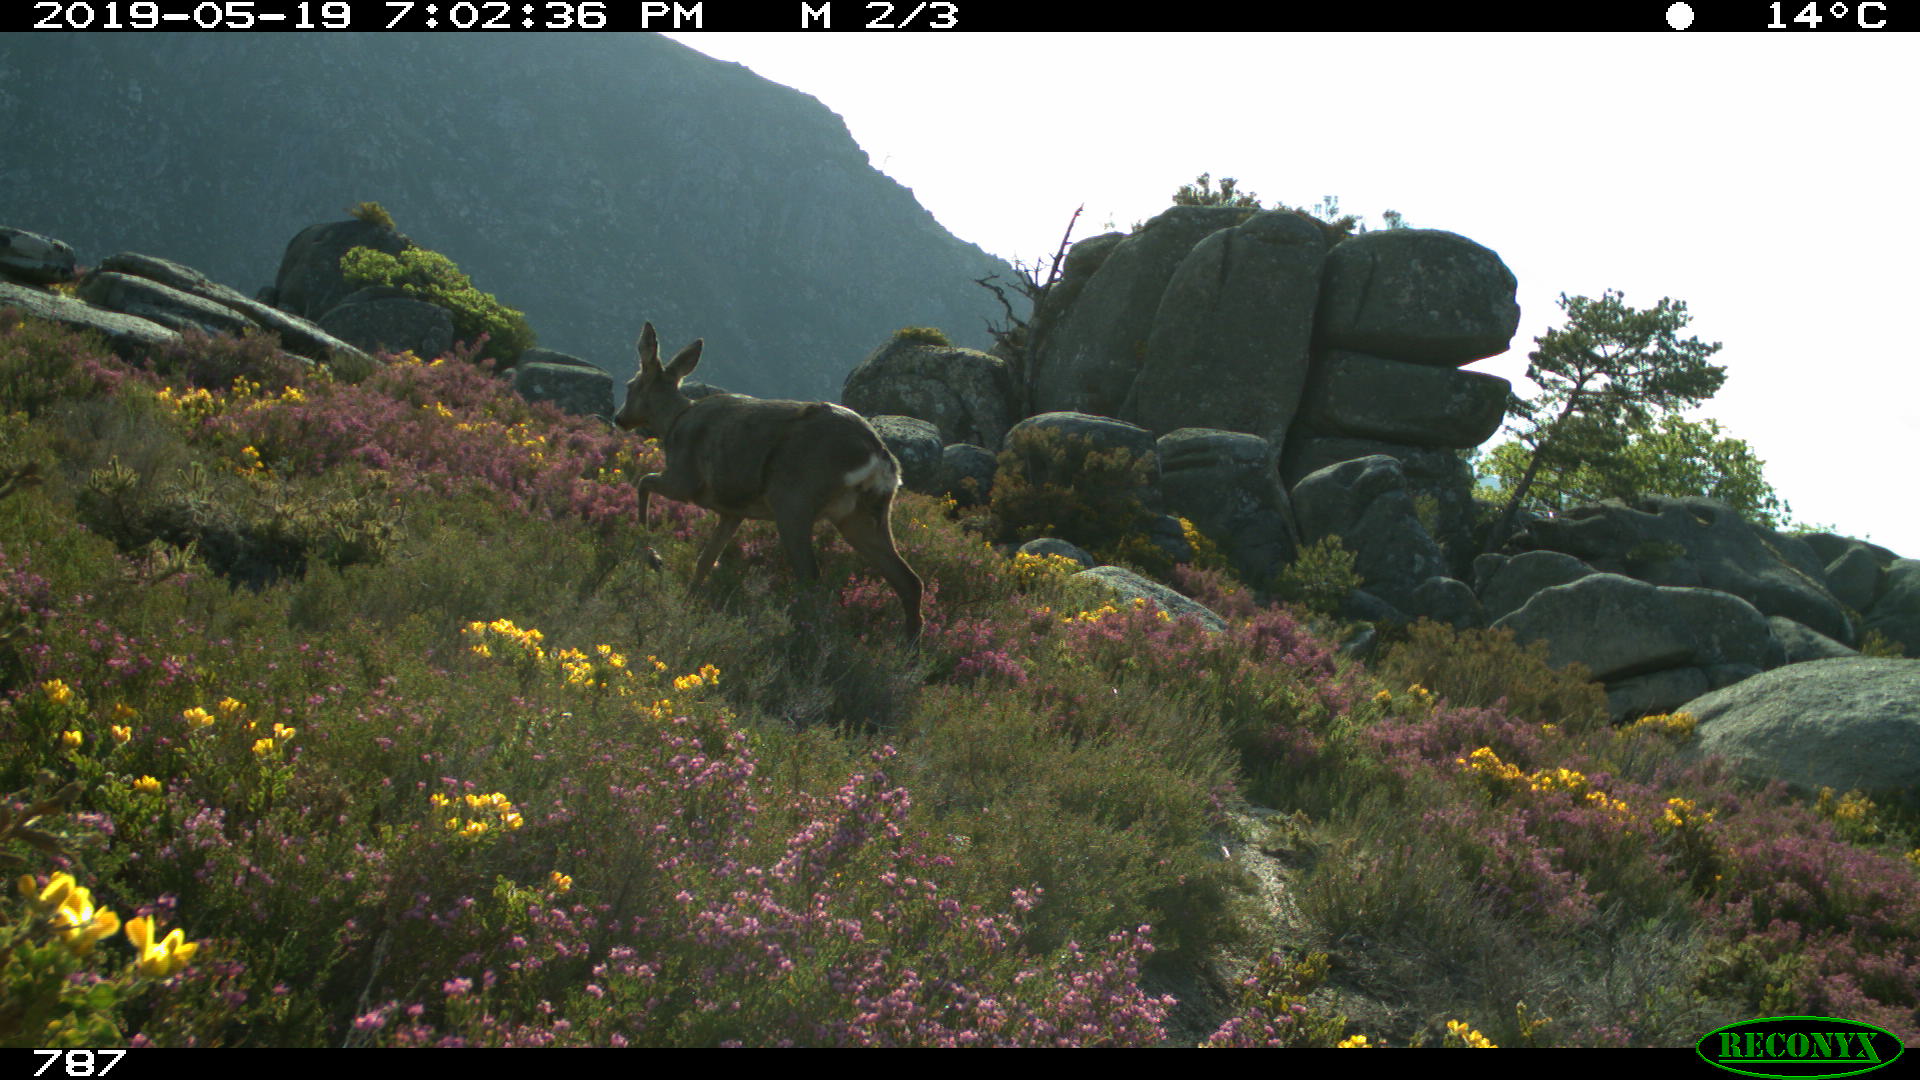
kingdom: Animalia
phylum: Chordata
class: Mammalia
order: Artiodactyla
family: Cervidae
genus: Capreolus
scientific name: Capreolus capreolus
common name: Western roe deer
